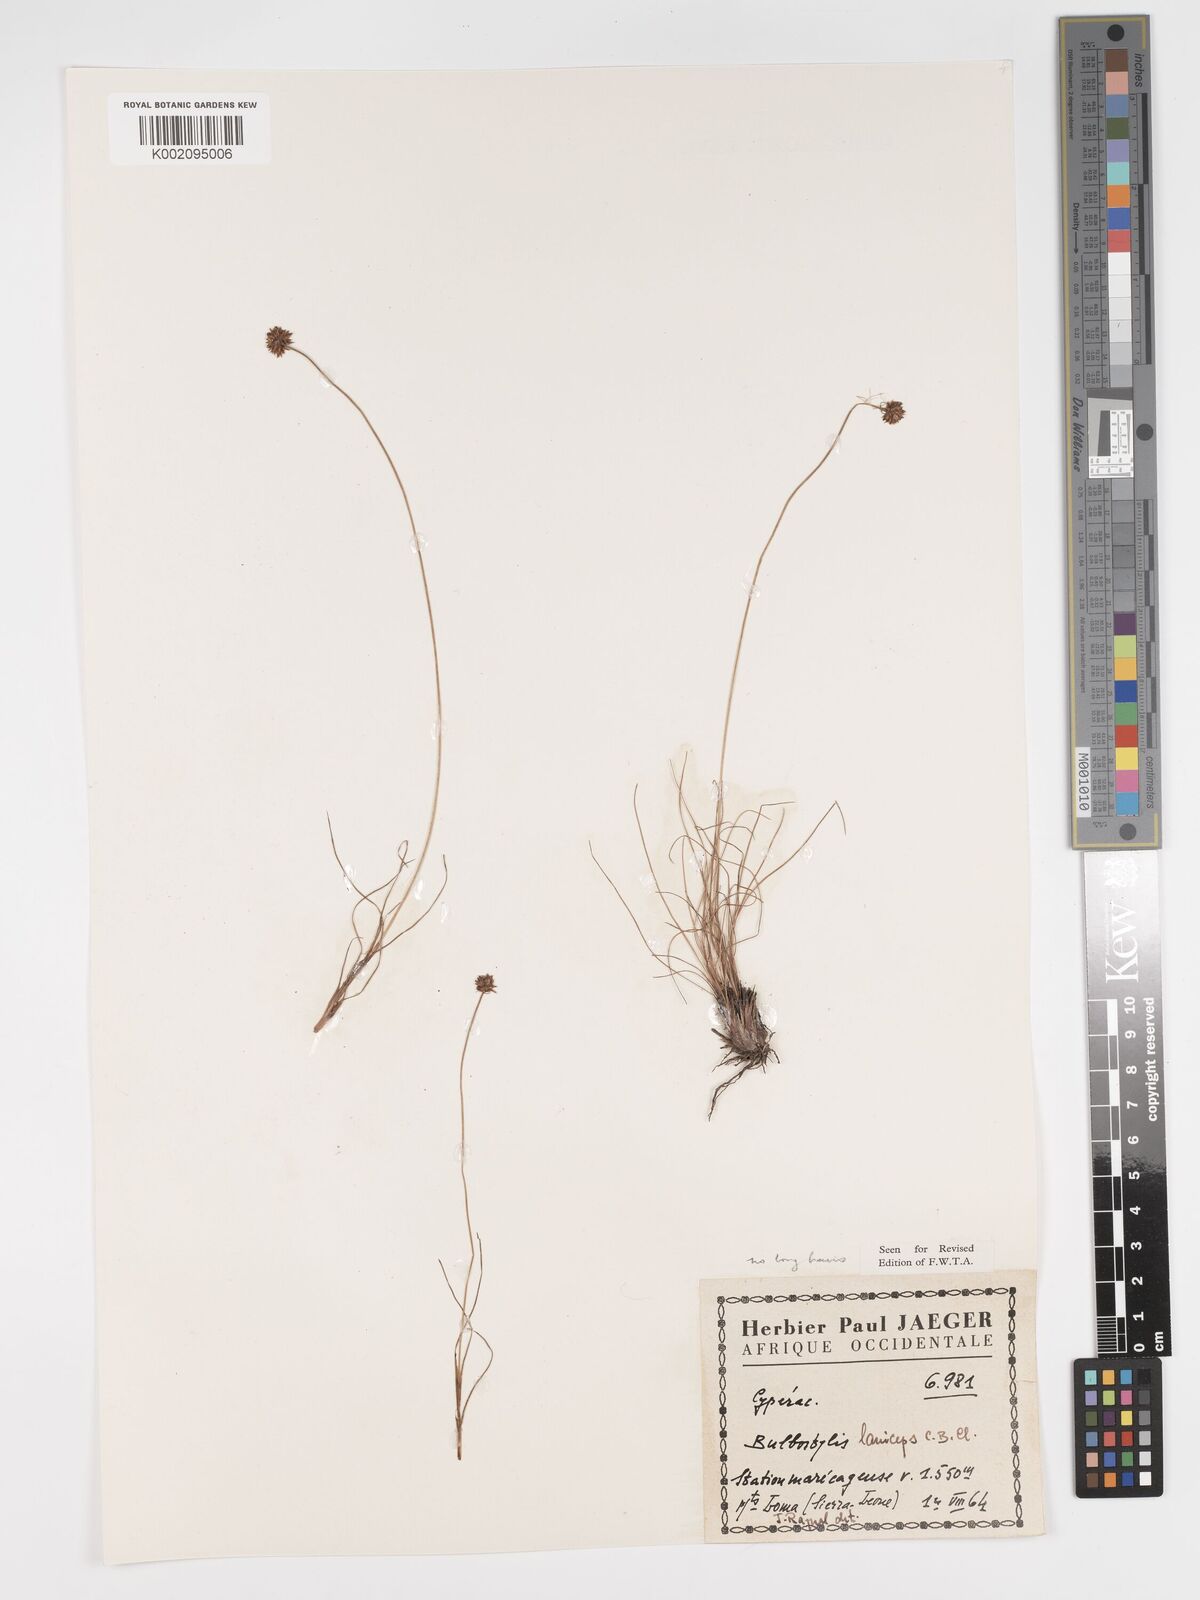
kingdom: Plantae
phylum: Tracheophyta
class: Liliopsida
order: Poales
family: Cyperaceae
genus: Bulbostylis
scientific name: Bulbostylis laniceps
